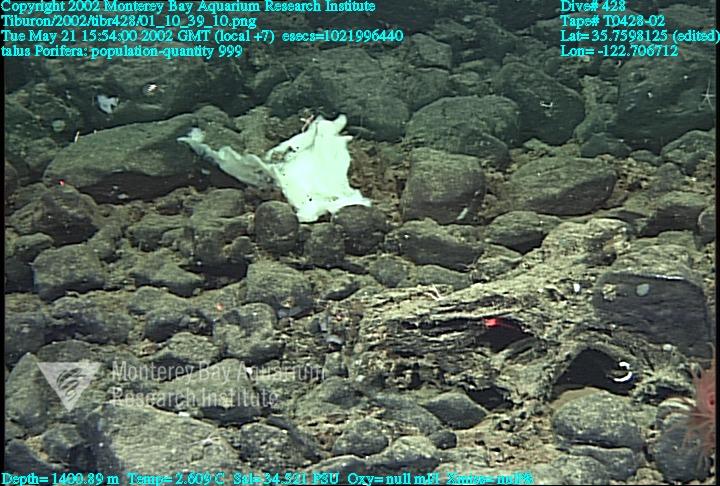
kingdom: Animalia
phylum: Porifera
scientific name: Porifera
